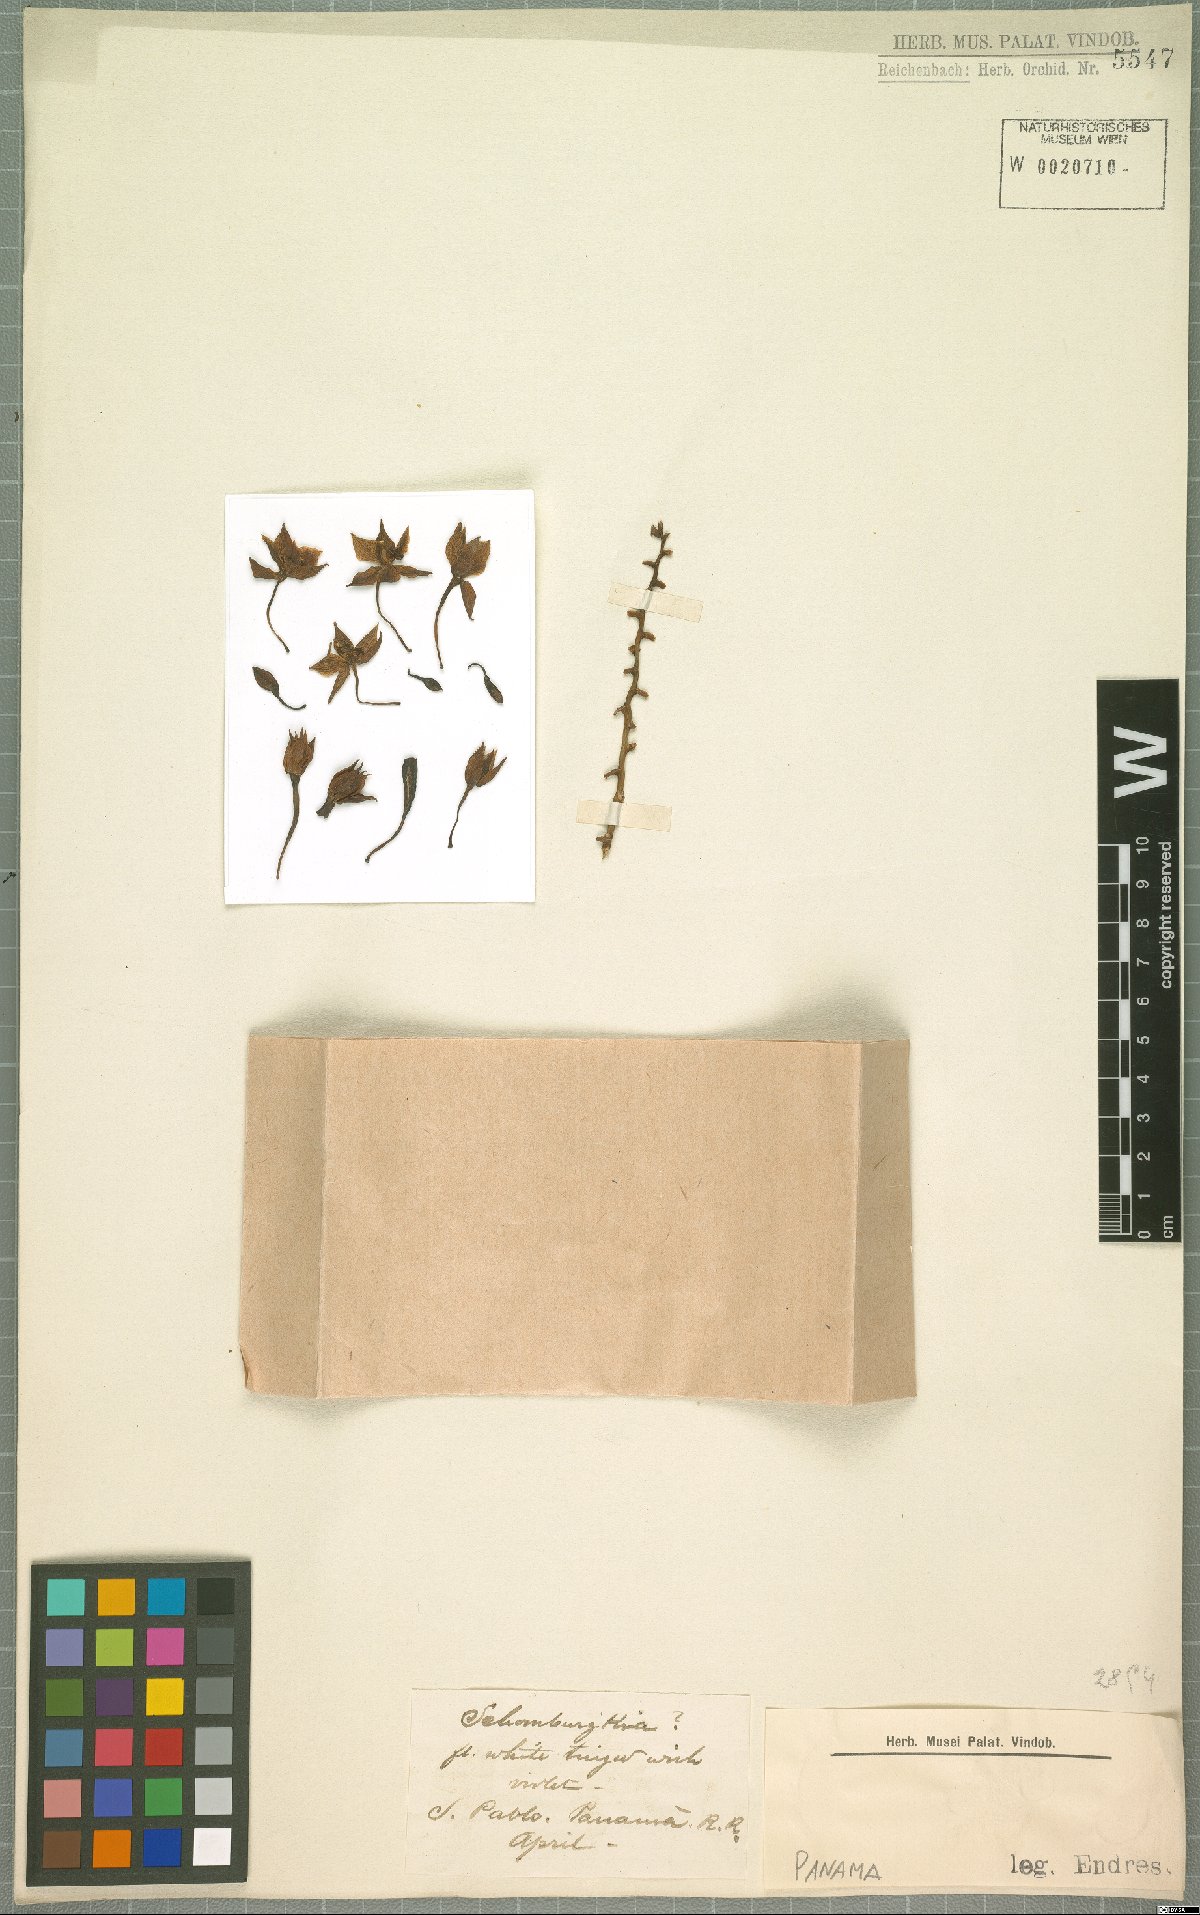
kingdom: Plantae
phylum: Tracheophyta
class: Liliopsida
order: Asparagales
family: Orchidaceae
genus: Laelia
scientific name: Laelia
